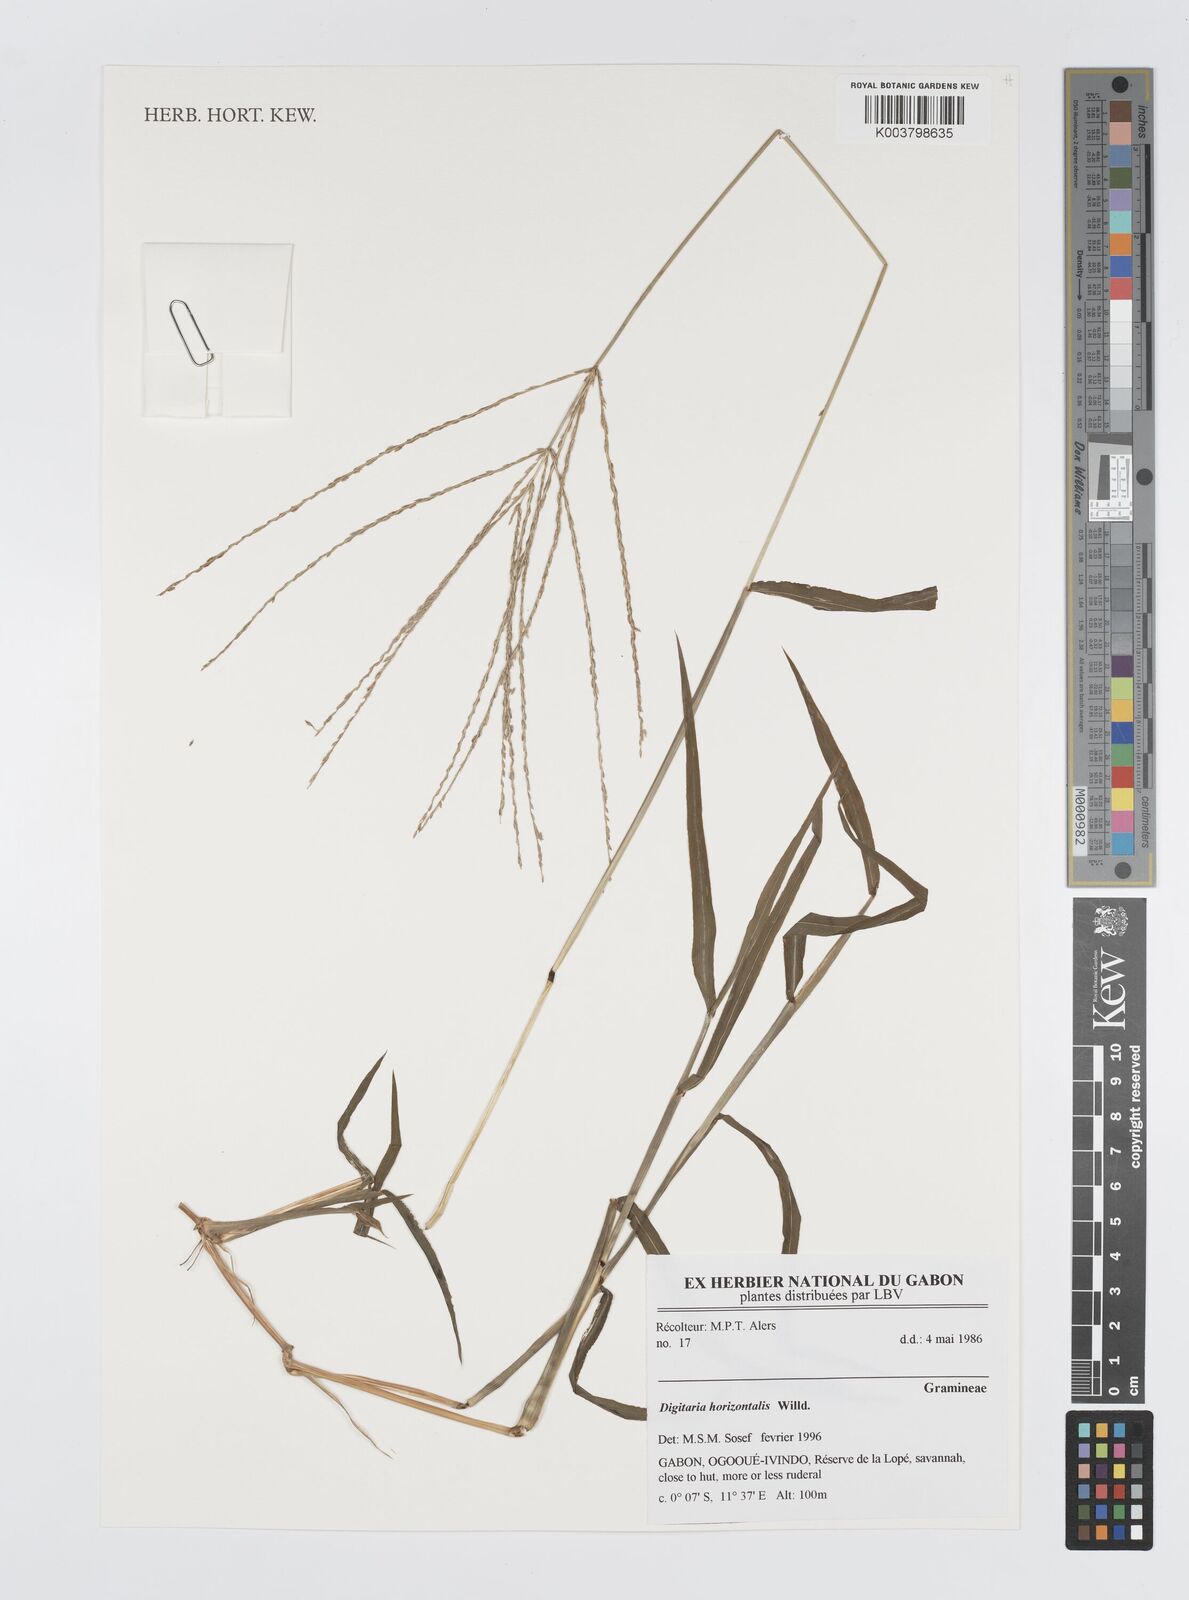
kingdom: Plantae
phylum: Tracheophyta
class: Liliopsida
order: Poales
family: Poaceae
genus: Digitaria
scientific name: Digitaria horizontalis
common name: Jamaican crabgrass
